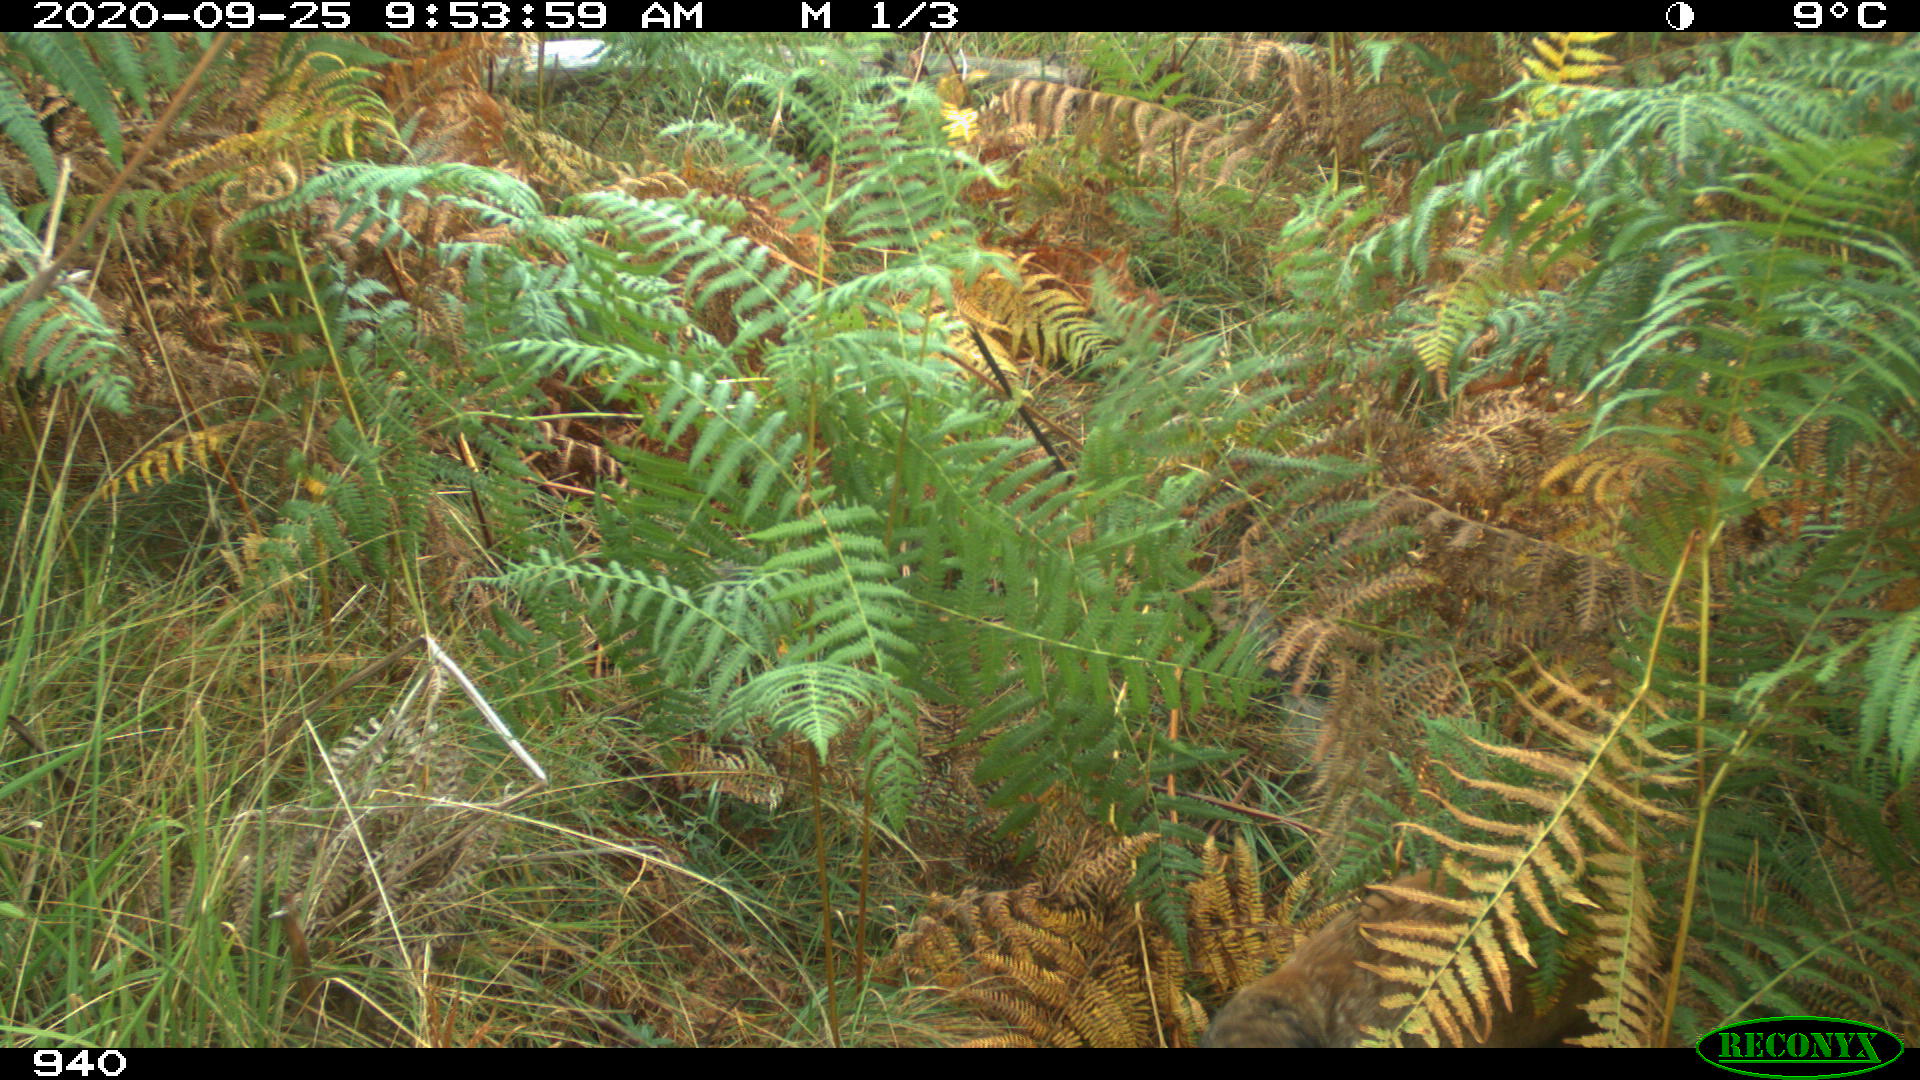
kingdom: Animalia
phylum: Chordata
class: Mammalia
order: Carnivora
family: Canidae
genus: Vulpes
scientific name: Vulpes vulpes
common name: Red fox
